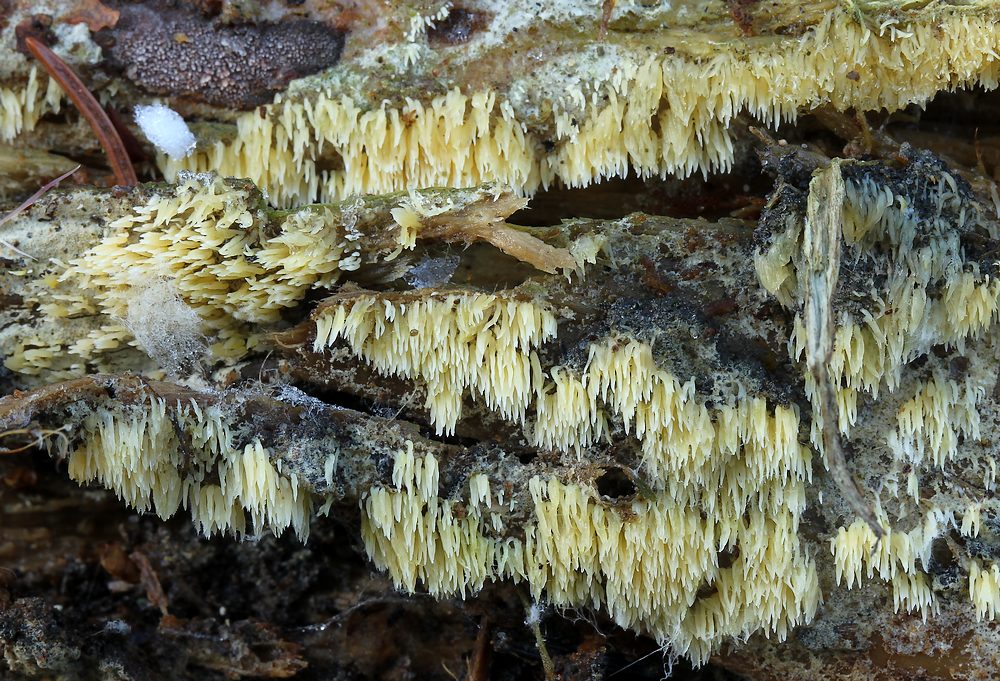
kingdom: Fungi
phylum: Basidiomycota
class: Agaricomycetes
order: Agaricales
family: Clavariaceae
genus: Mucronella
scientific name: Mucronella flava
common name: gul hængepig
